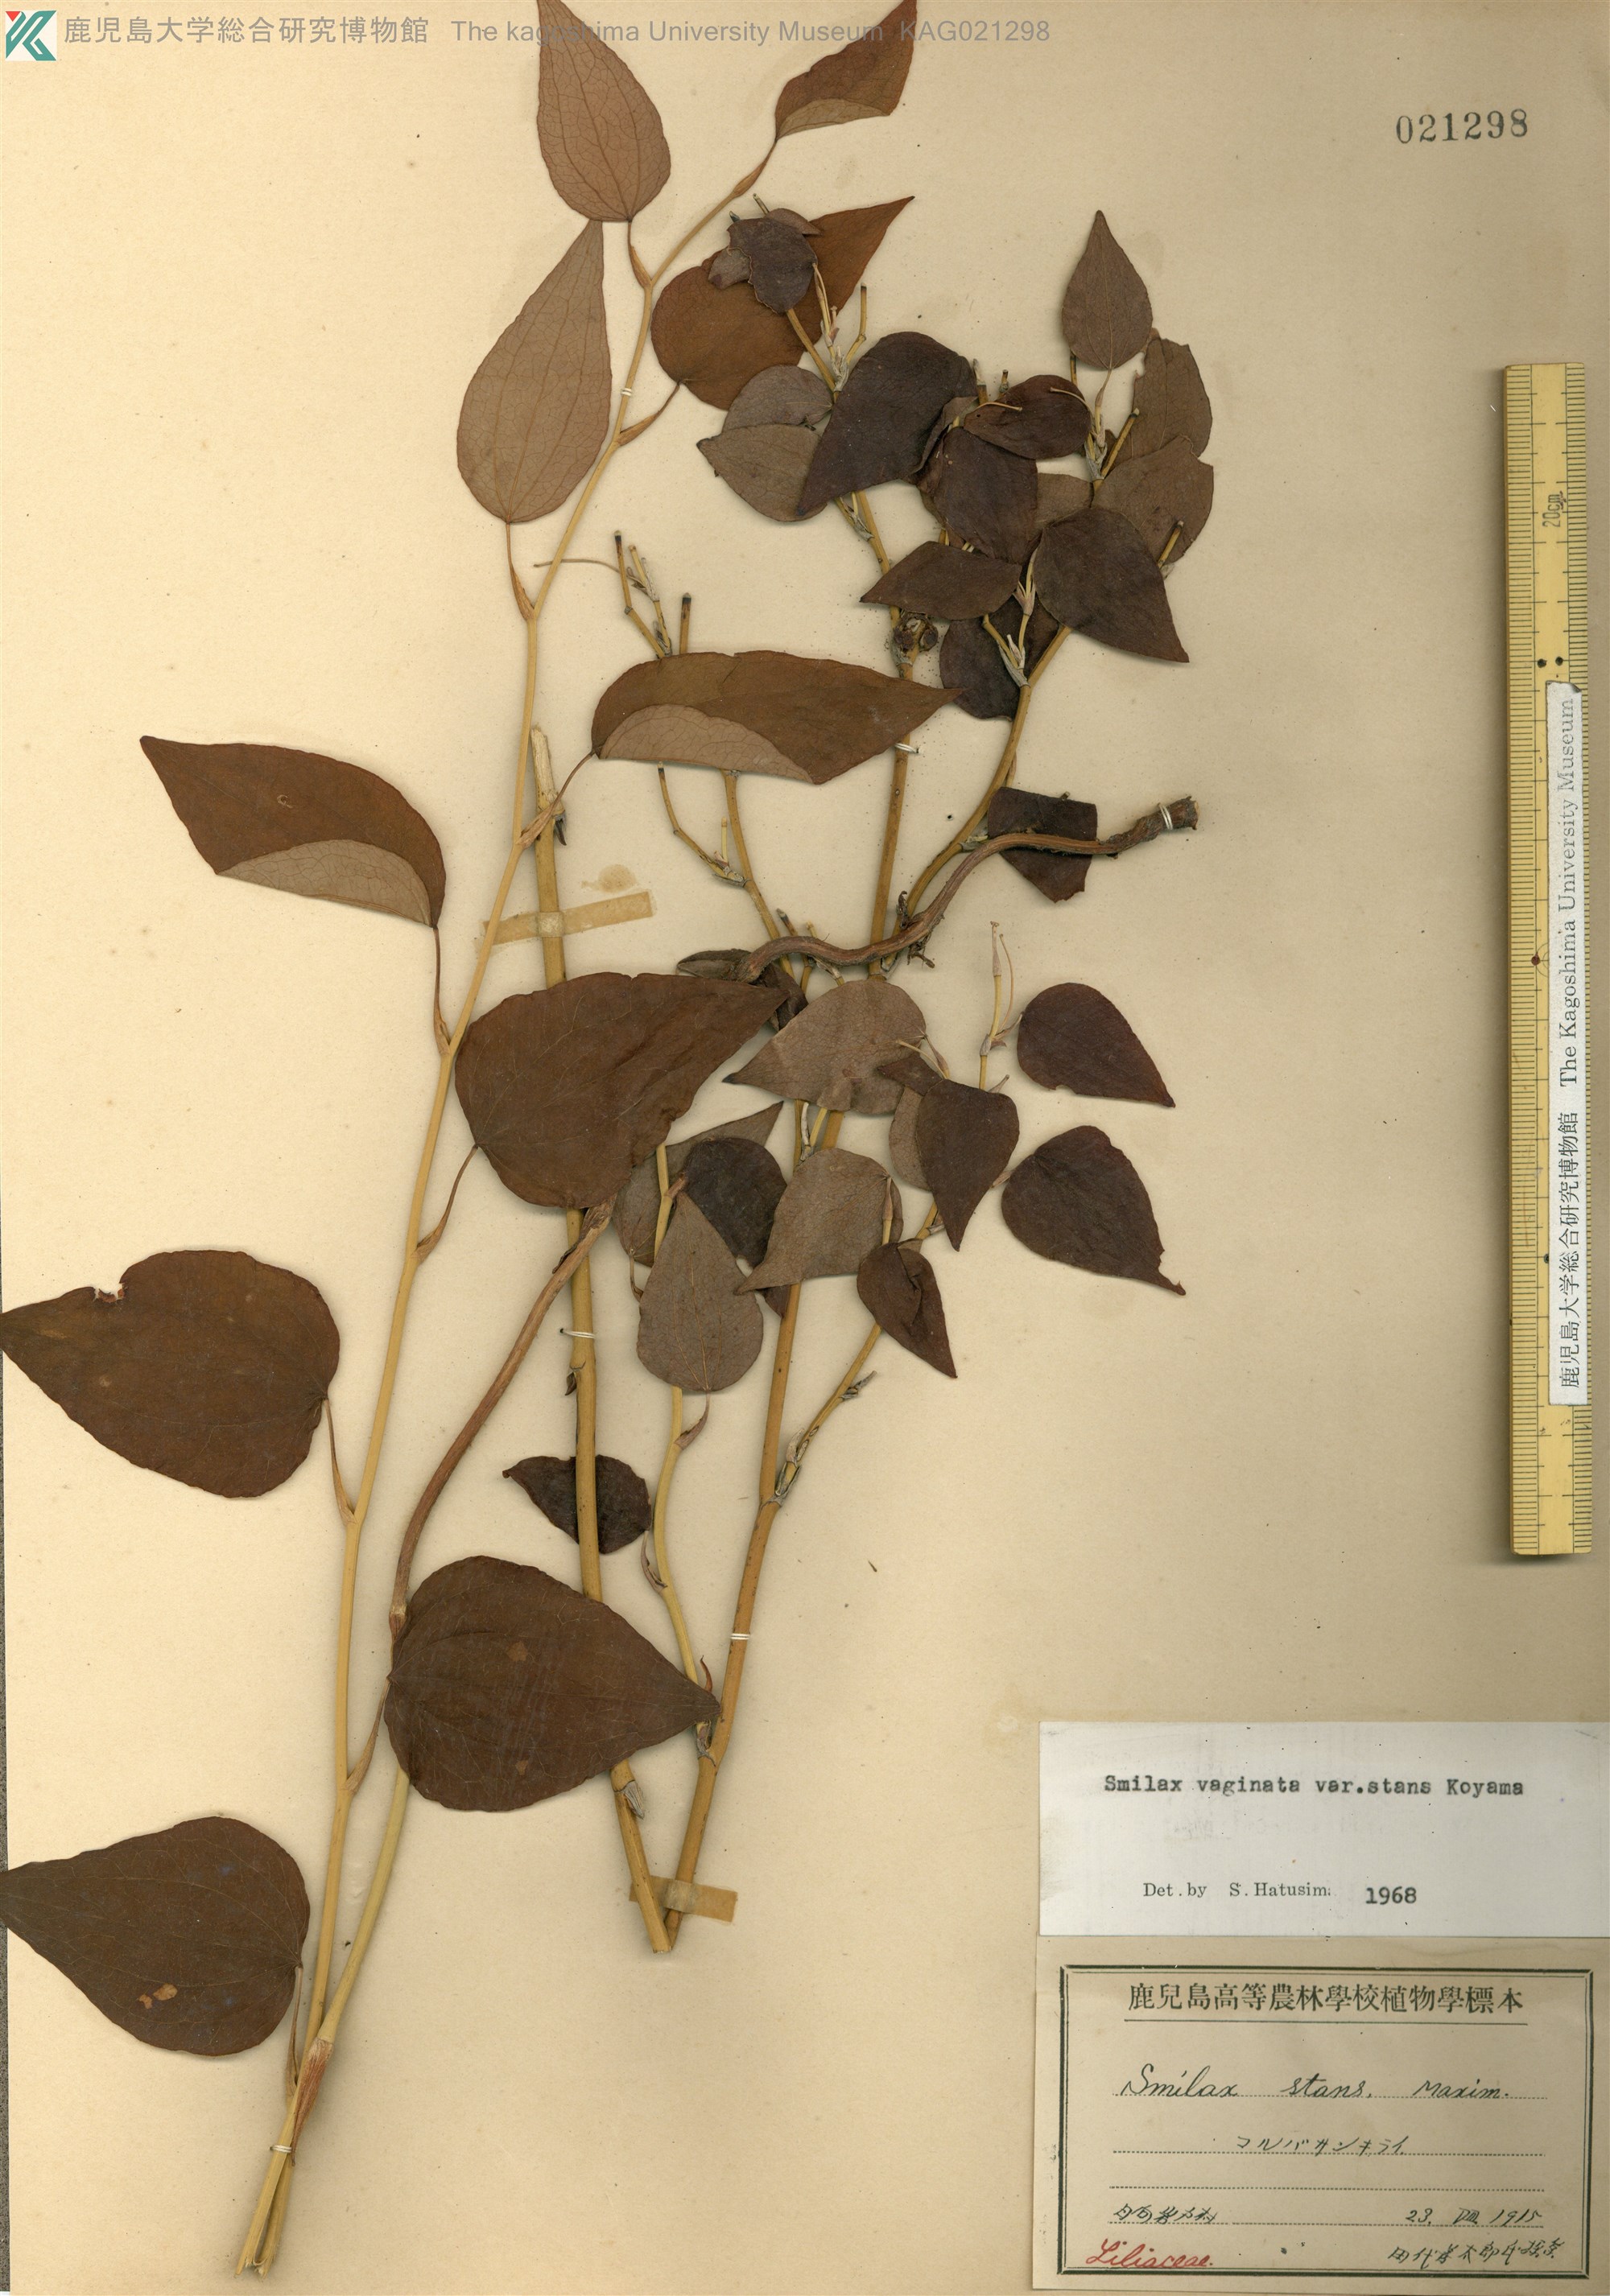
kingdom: Plantae
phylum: Tracheophyta
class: Liliopsida
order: Liliales
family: Smilacaceae
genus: Smilax
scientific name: Smilax stans
